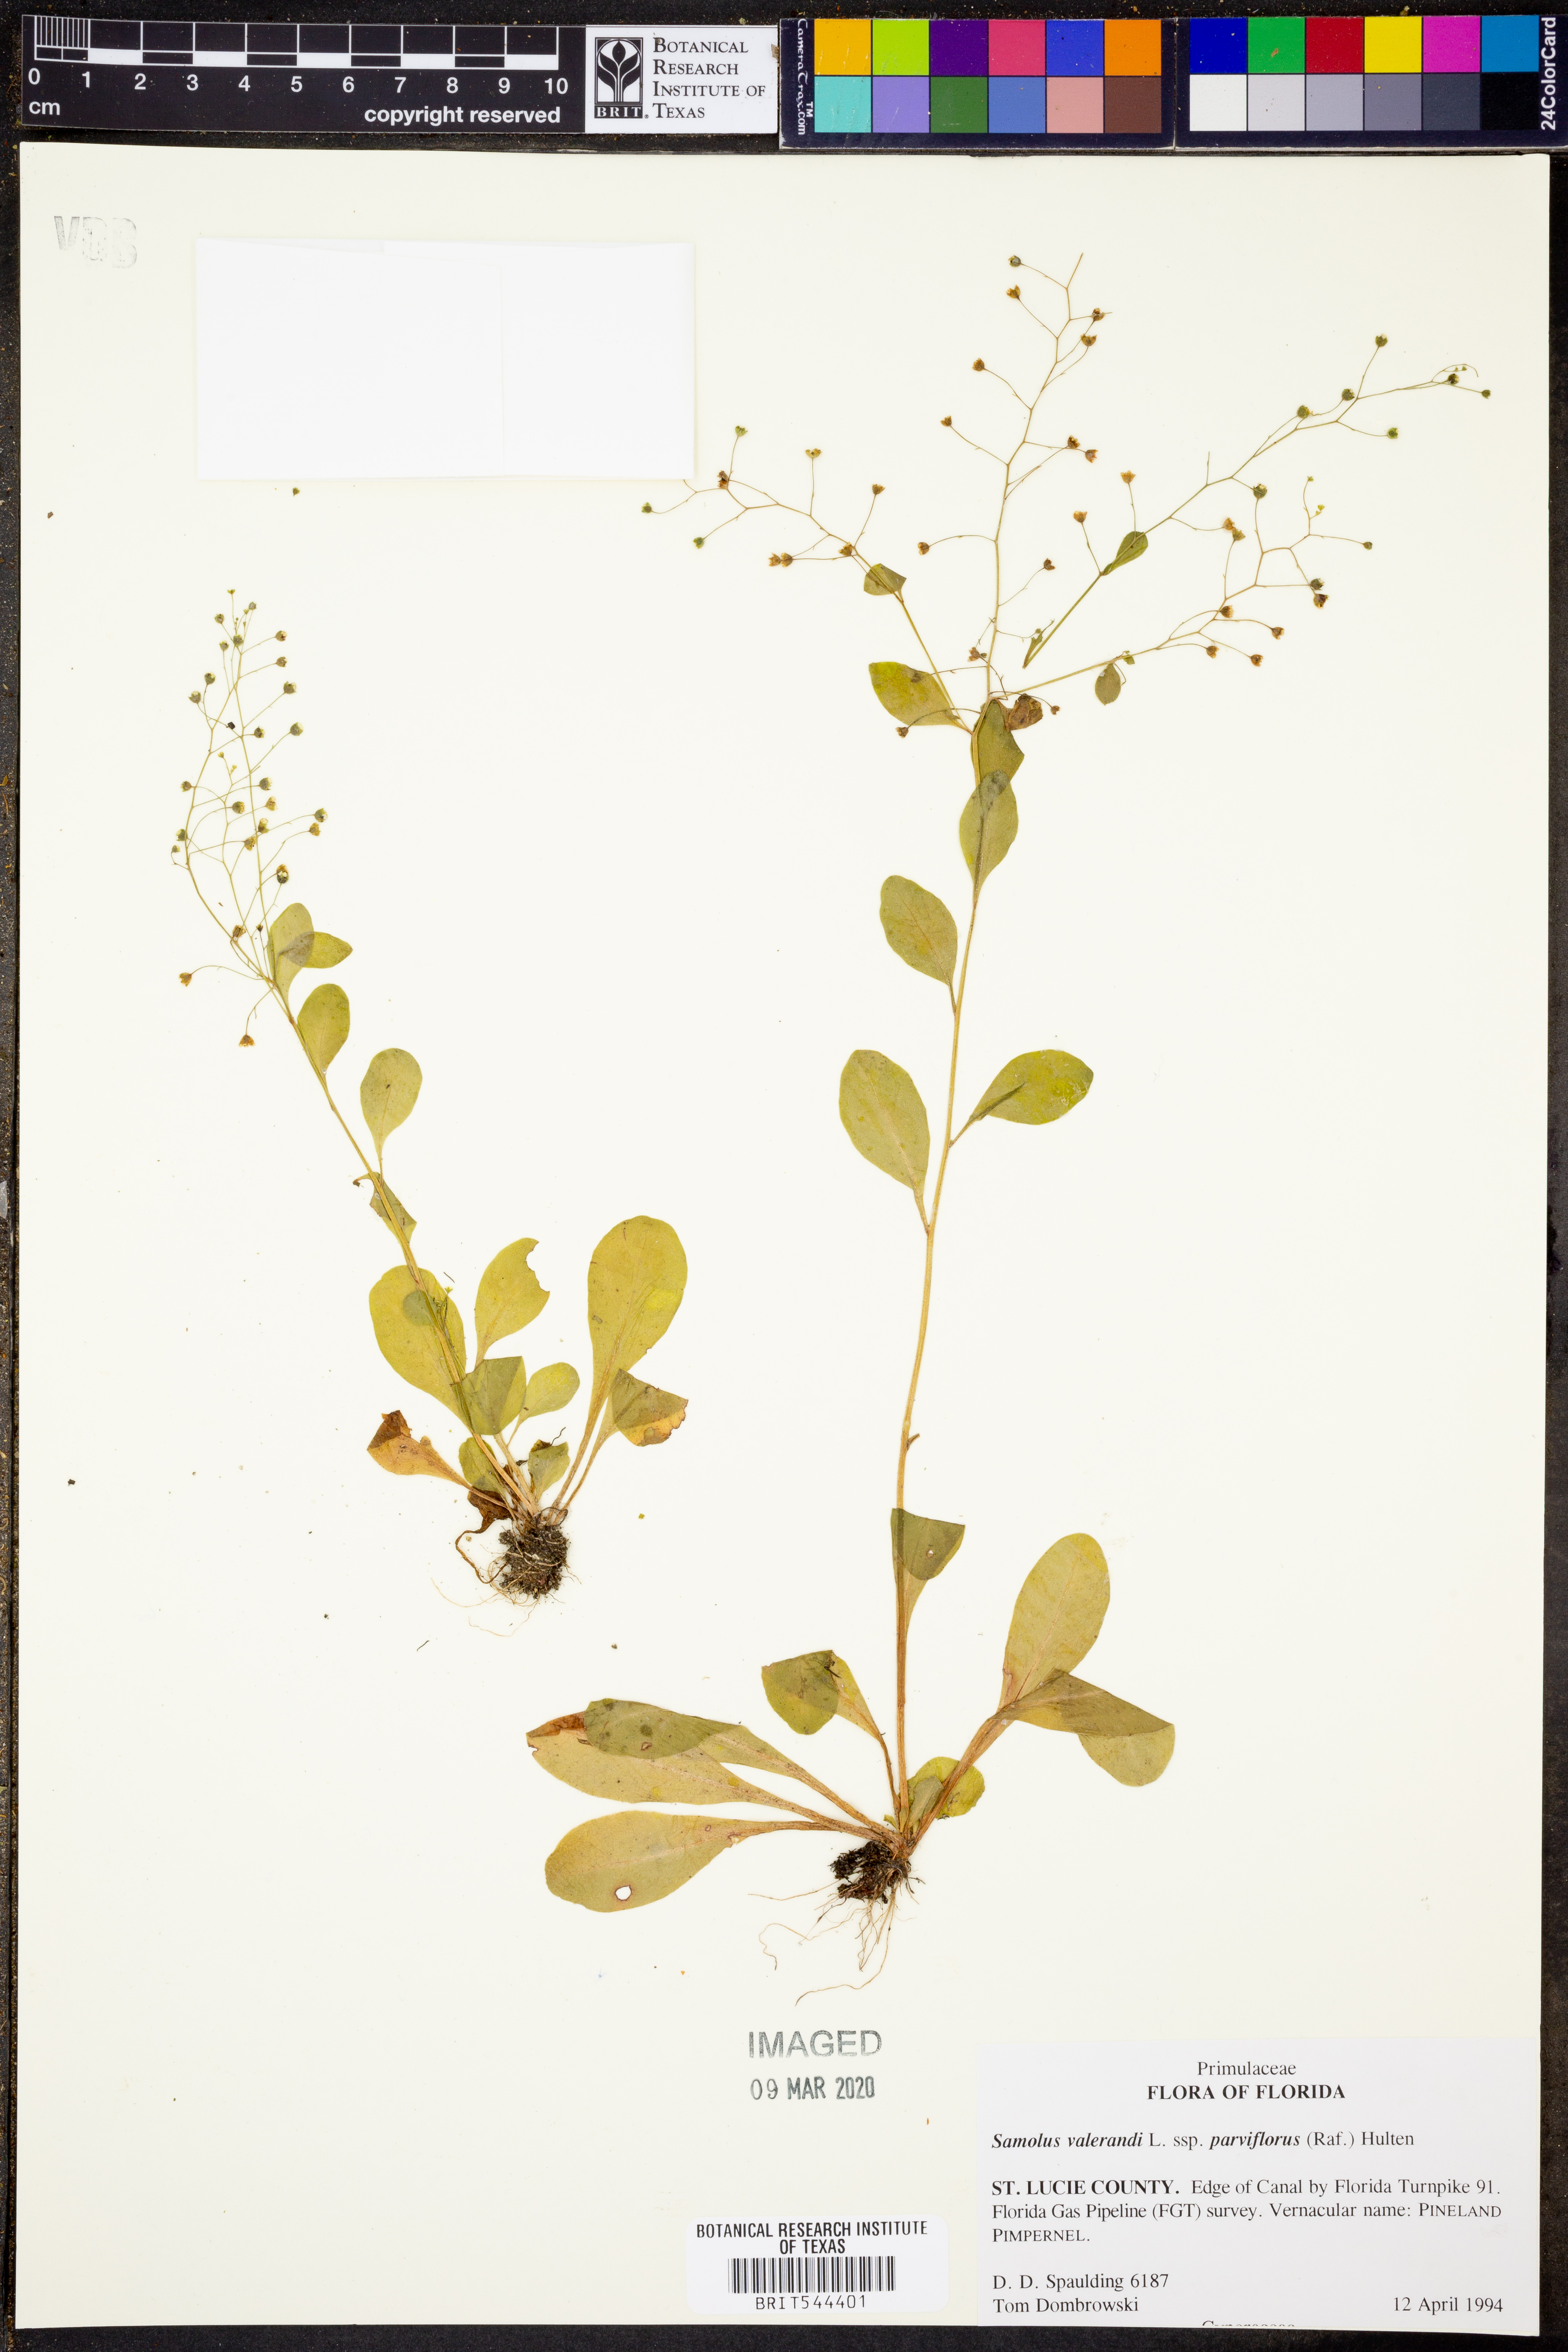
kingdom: Plantae
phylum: Tracheophyta
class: Magnoliopsida
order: Ericales
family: Primulaceae
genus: Samolus
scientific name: Samolus parviflorus
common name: False water pimpernel
